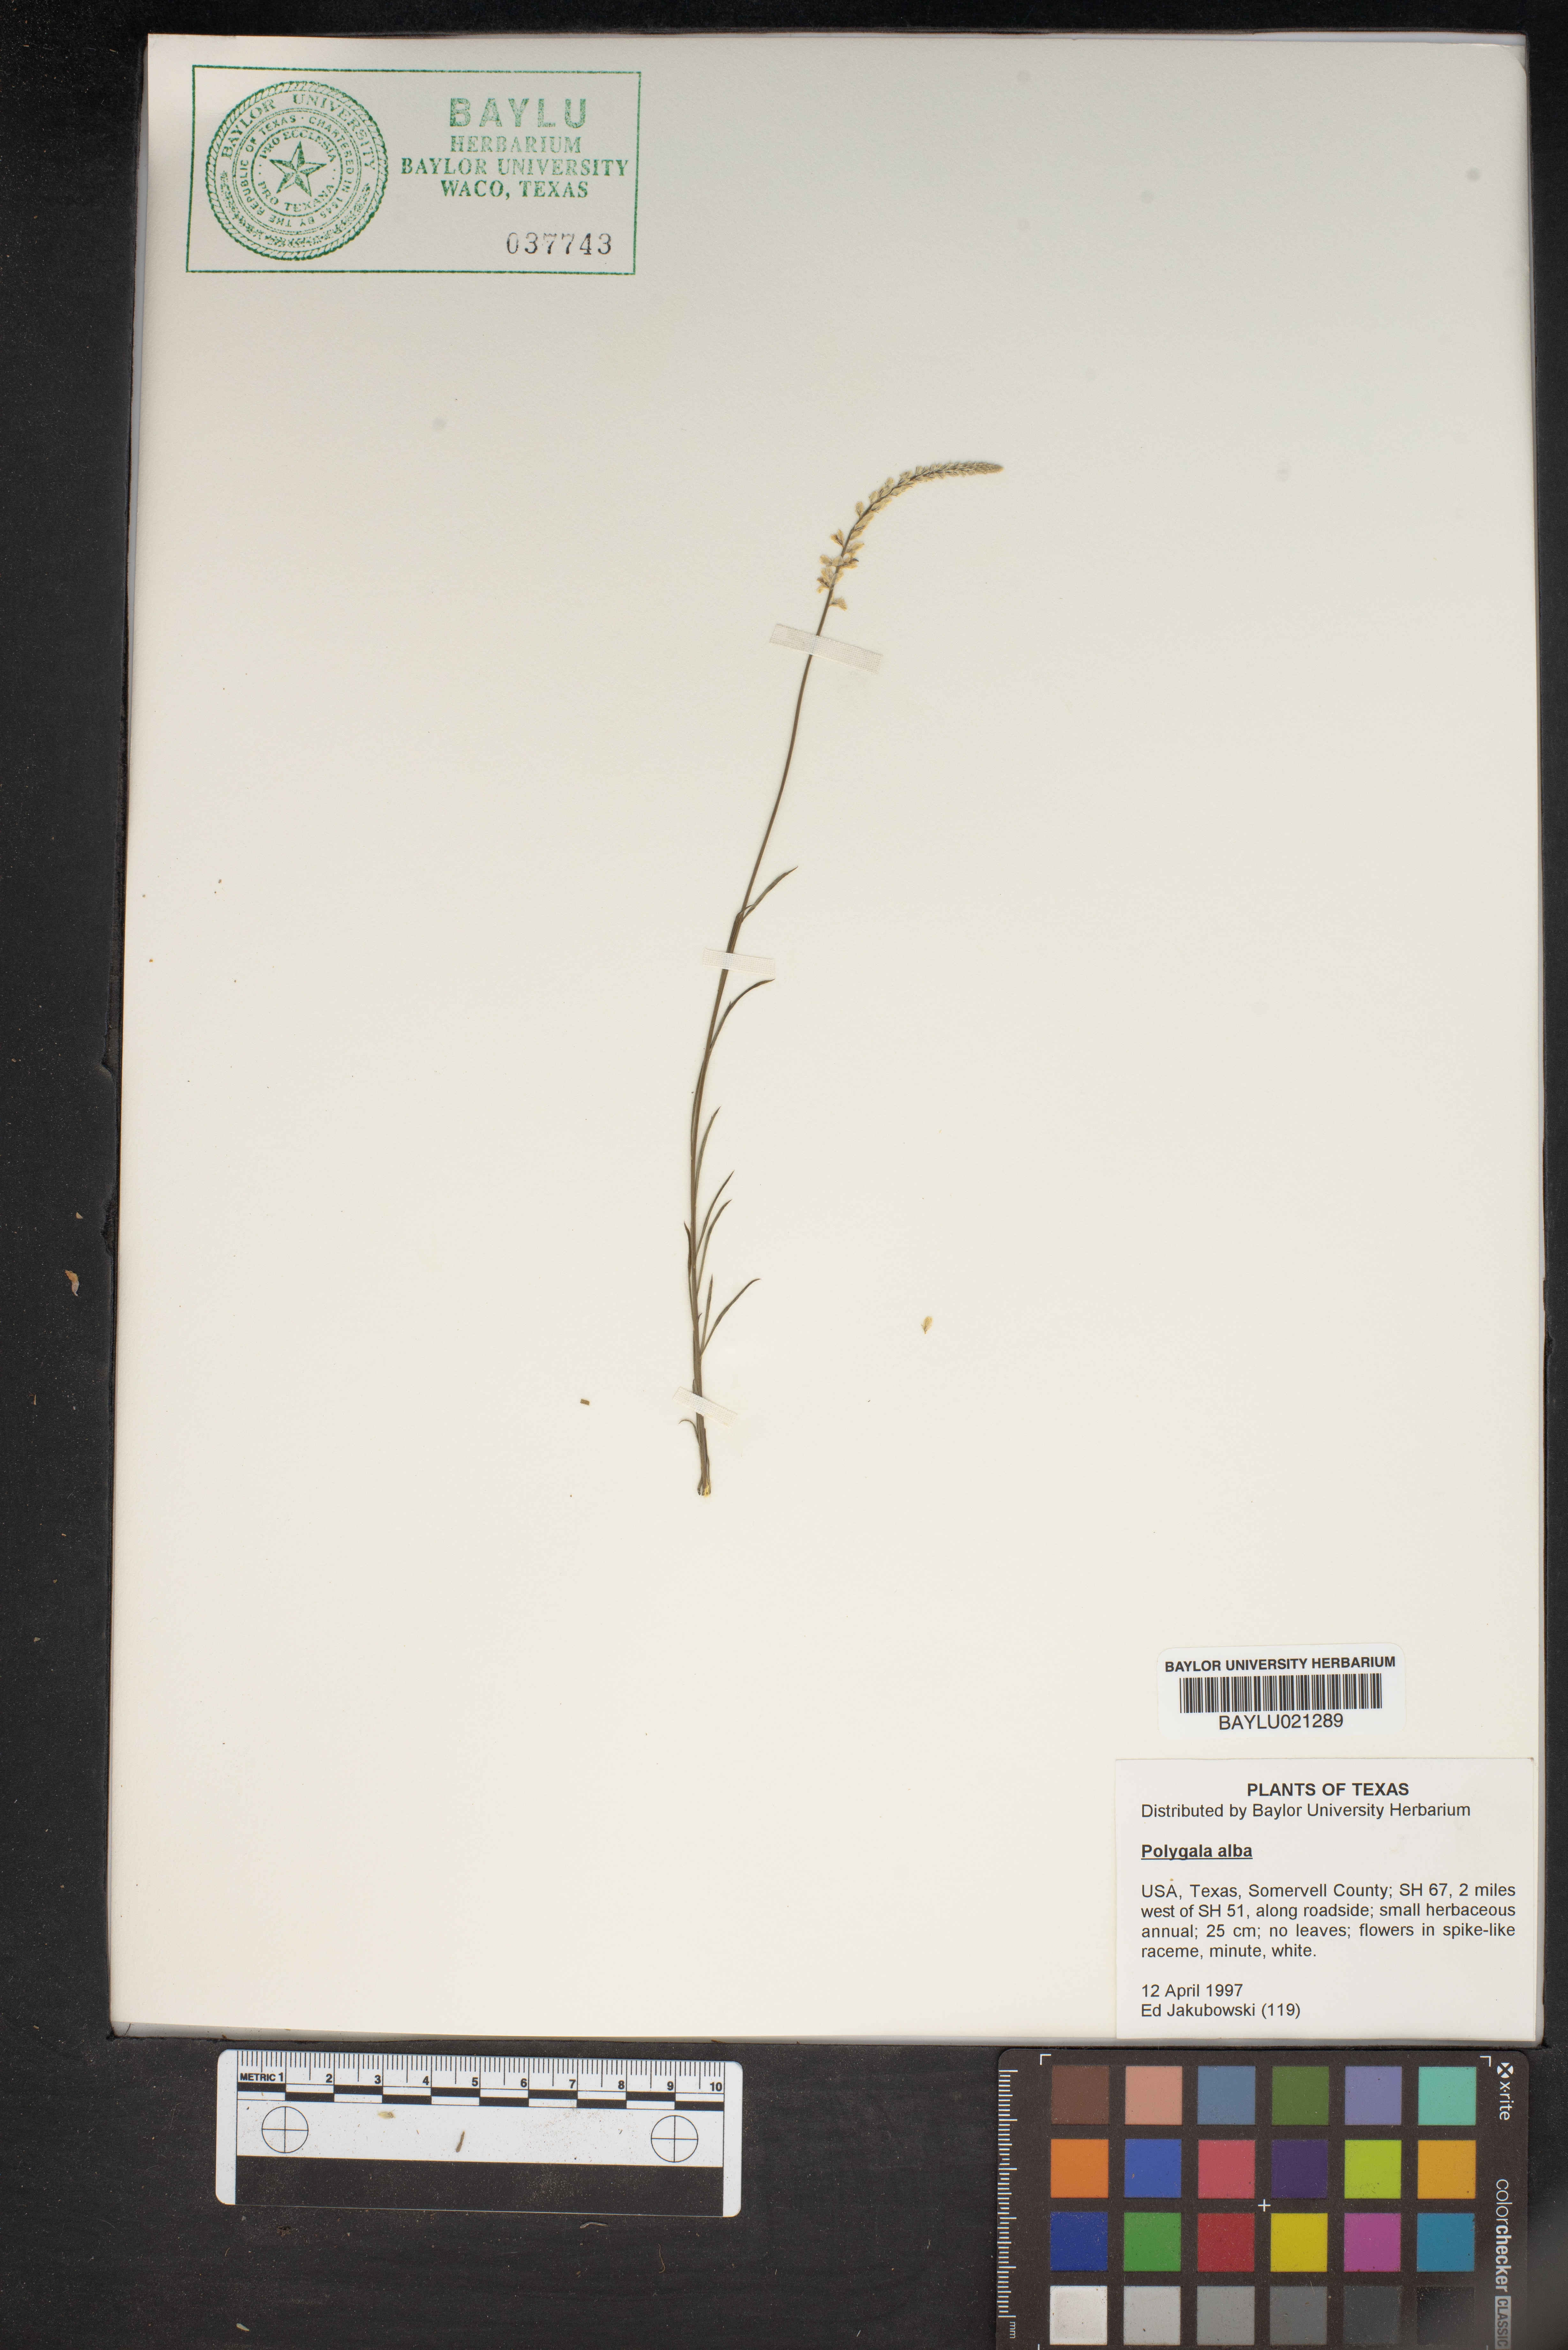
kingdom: Plantae
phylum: Tracheophyta
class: Magnoliopsida
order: Fabales
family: Polygalaceae
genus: Polygala
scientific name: Polygala alba
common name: White milkwort
